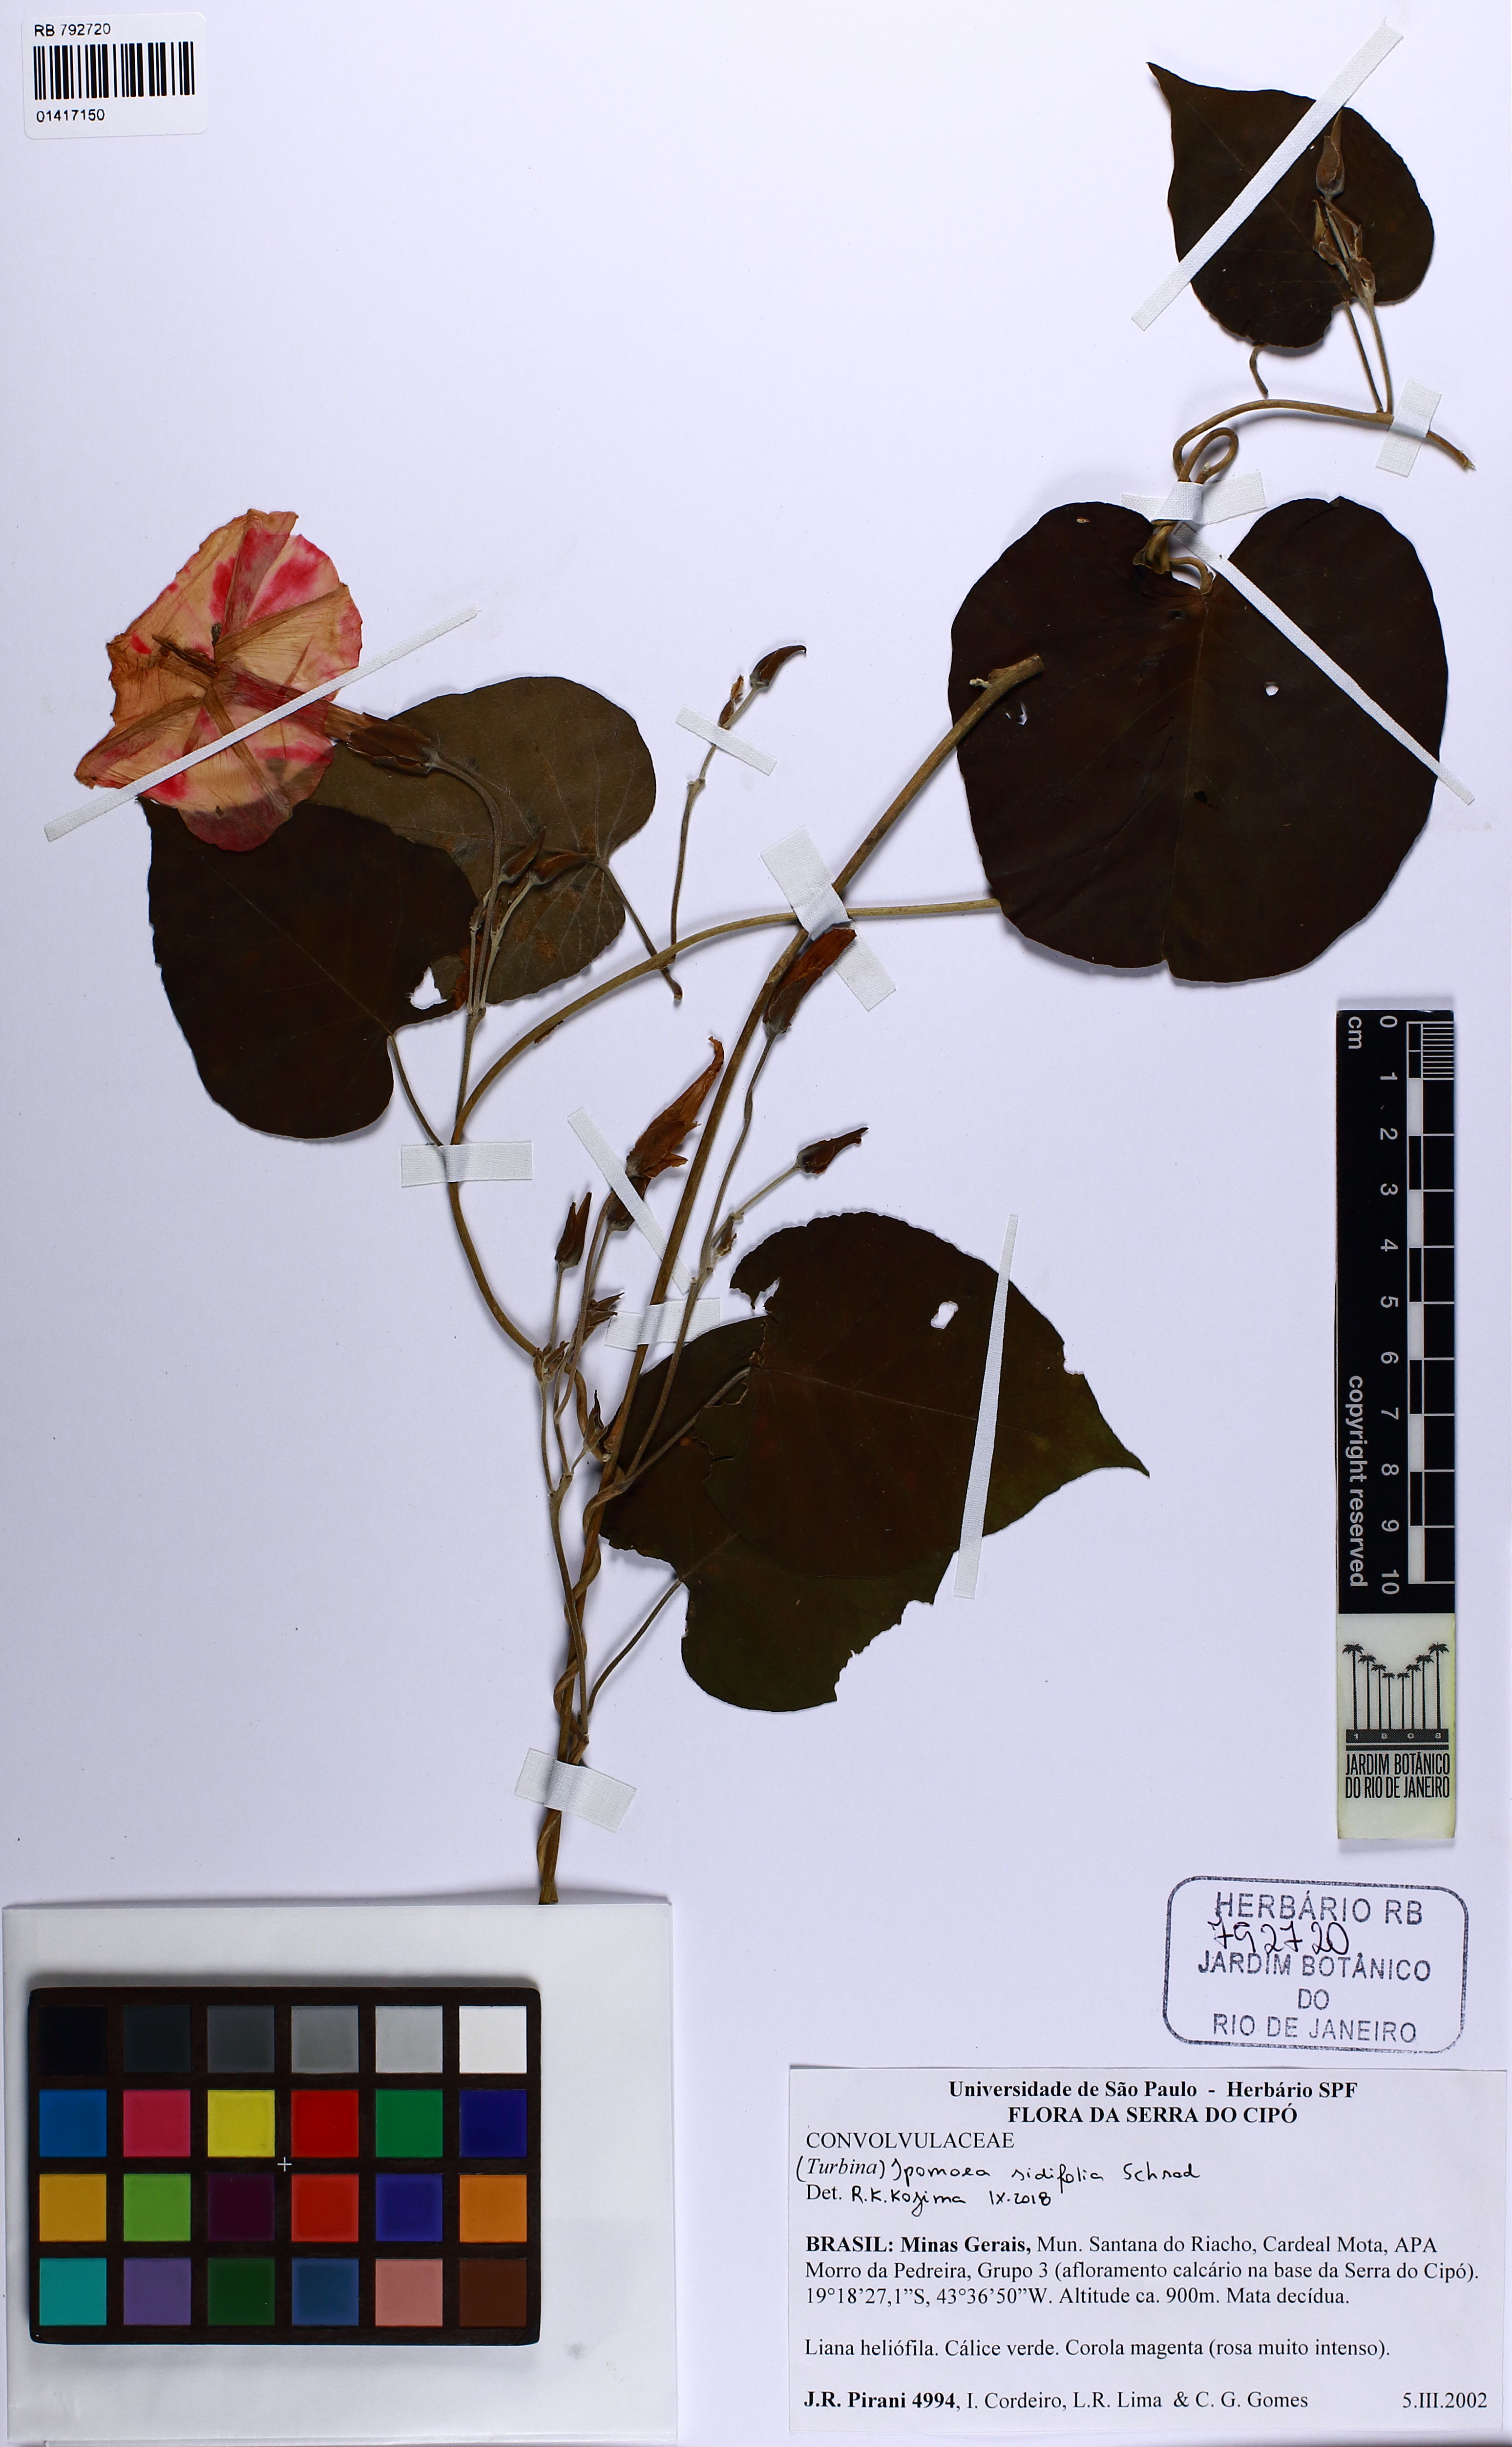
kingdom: Plantae
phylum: Tracheophyta
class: Magnoliopsida
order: Solanales
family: Convolvulaceae
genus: Ipomoea
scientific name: Ipomoea sidifolia
